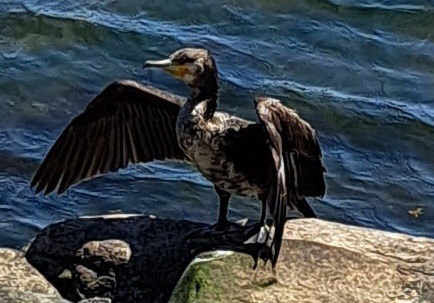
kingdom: Animalia
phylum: Chordata
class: Aves
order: Suliformes
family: Phalacrocoracidae
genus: Phalacrocorax
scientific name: Phalacrocorax carbo
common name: Skarv
